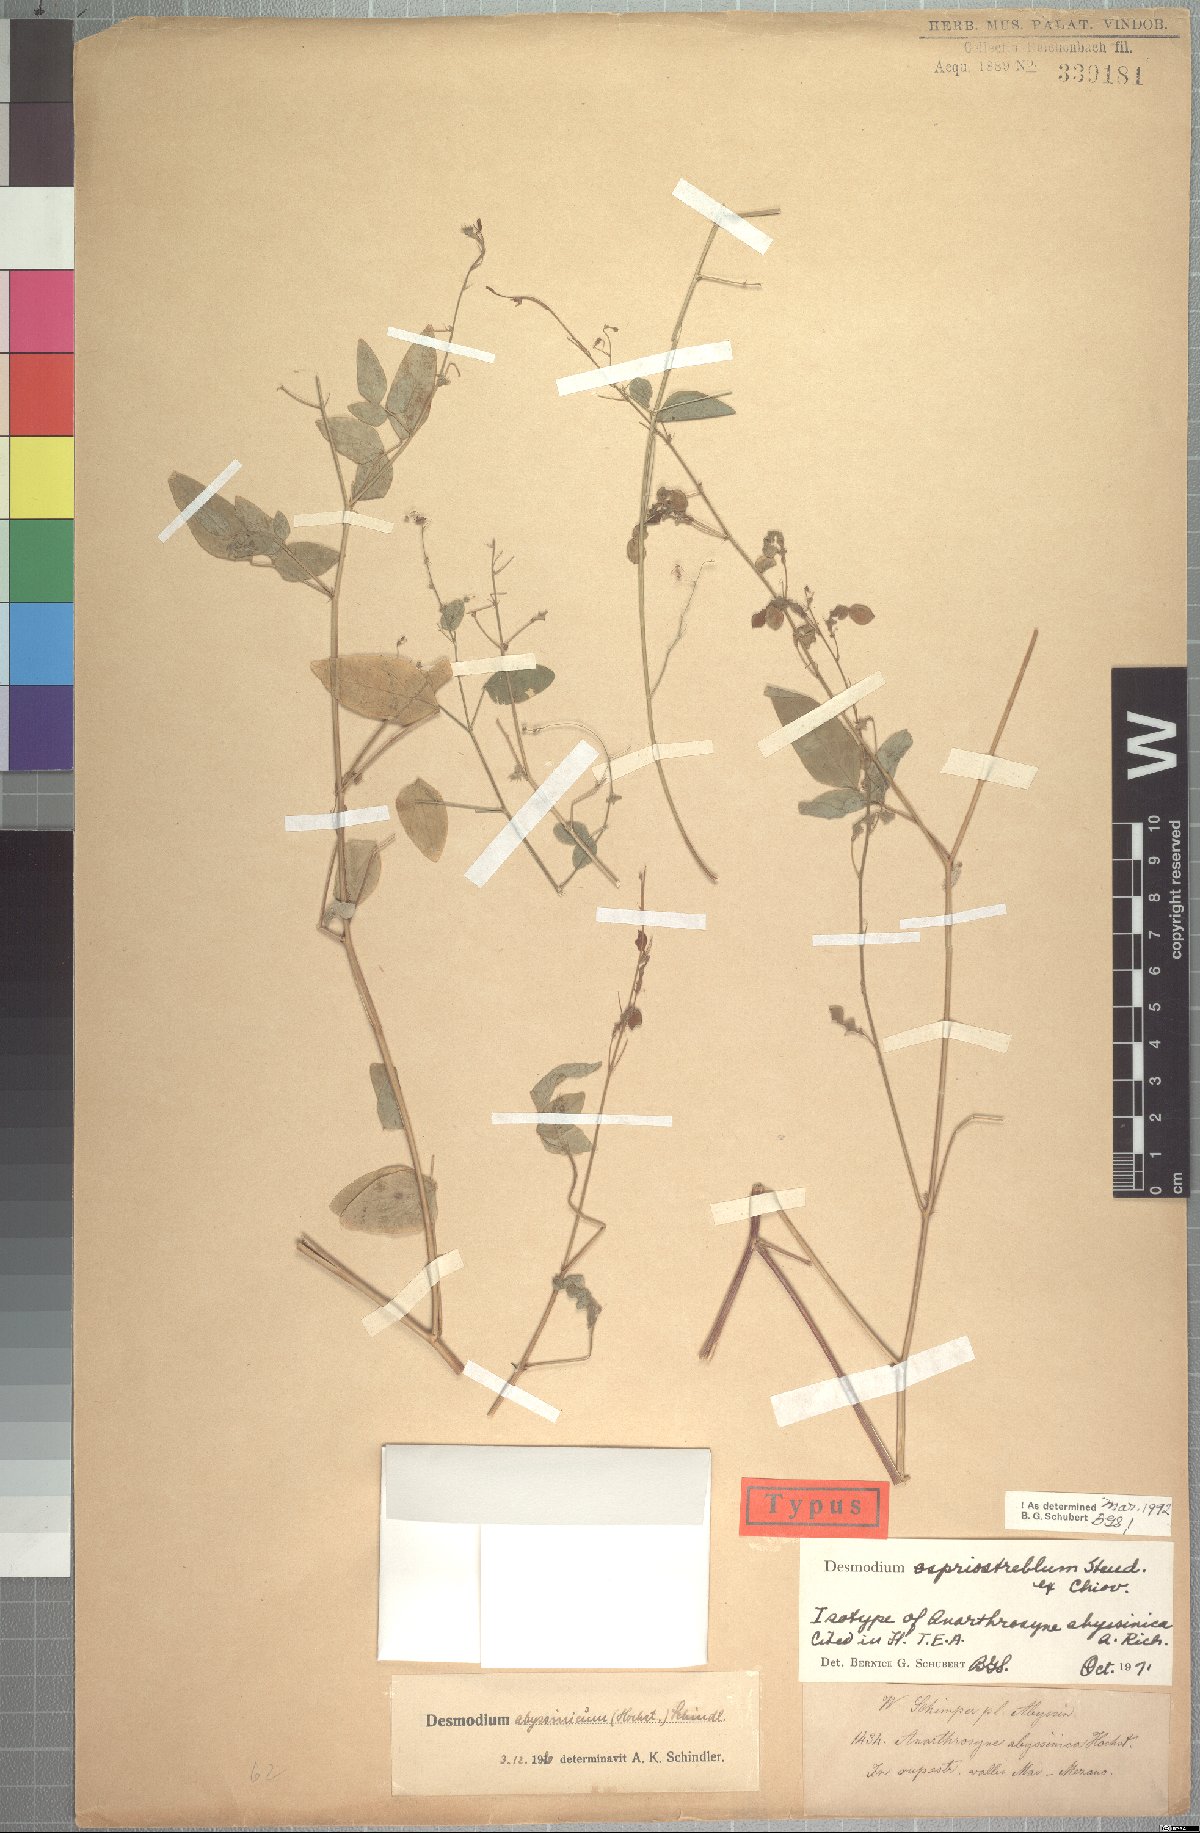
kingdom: Plantae
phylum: Tracheophyta
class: Magnoliopsida
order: Fabales
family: Fabaceae
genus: Desmodium
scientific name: Desmodium ospriostreblum
